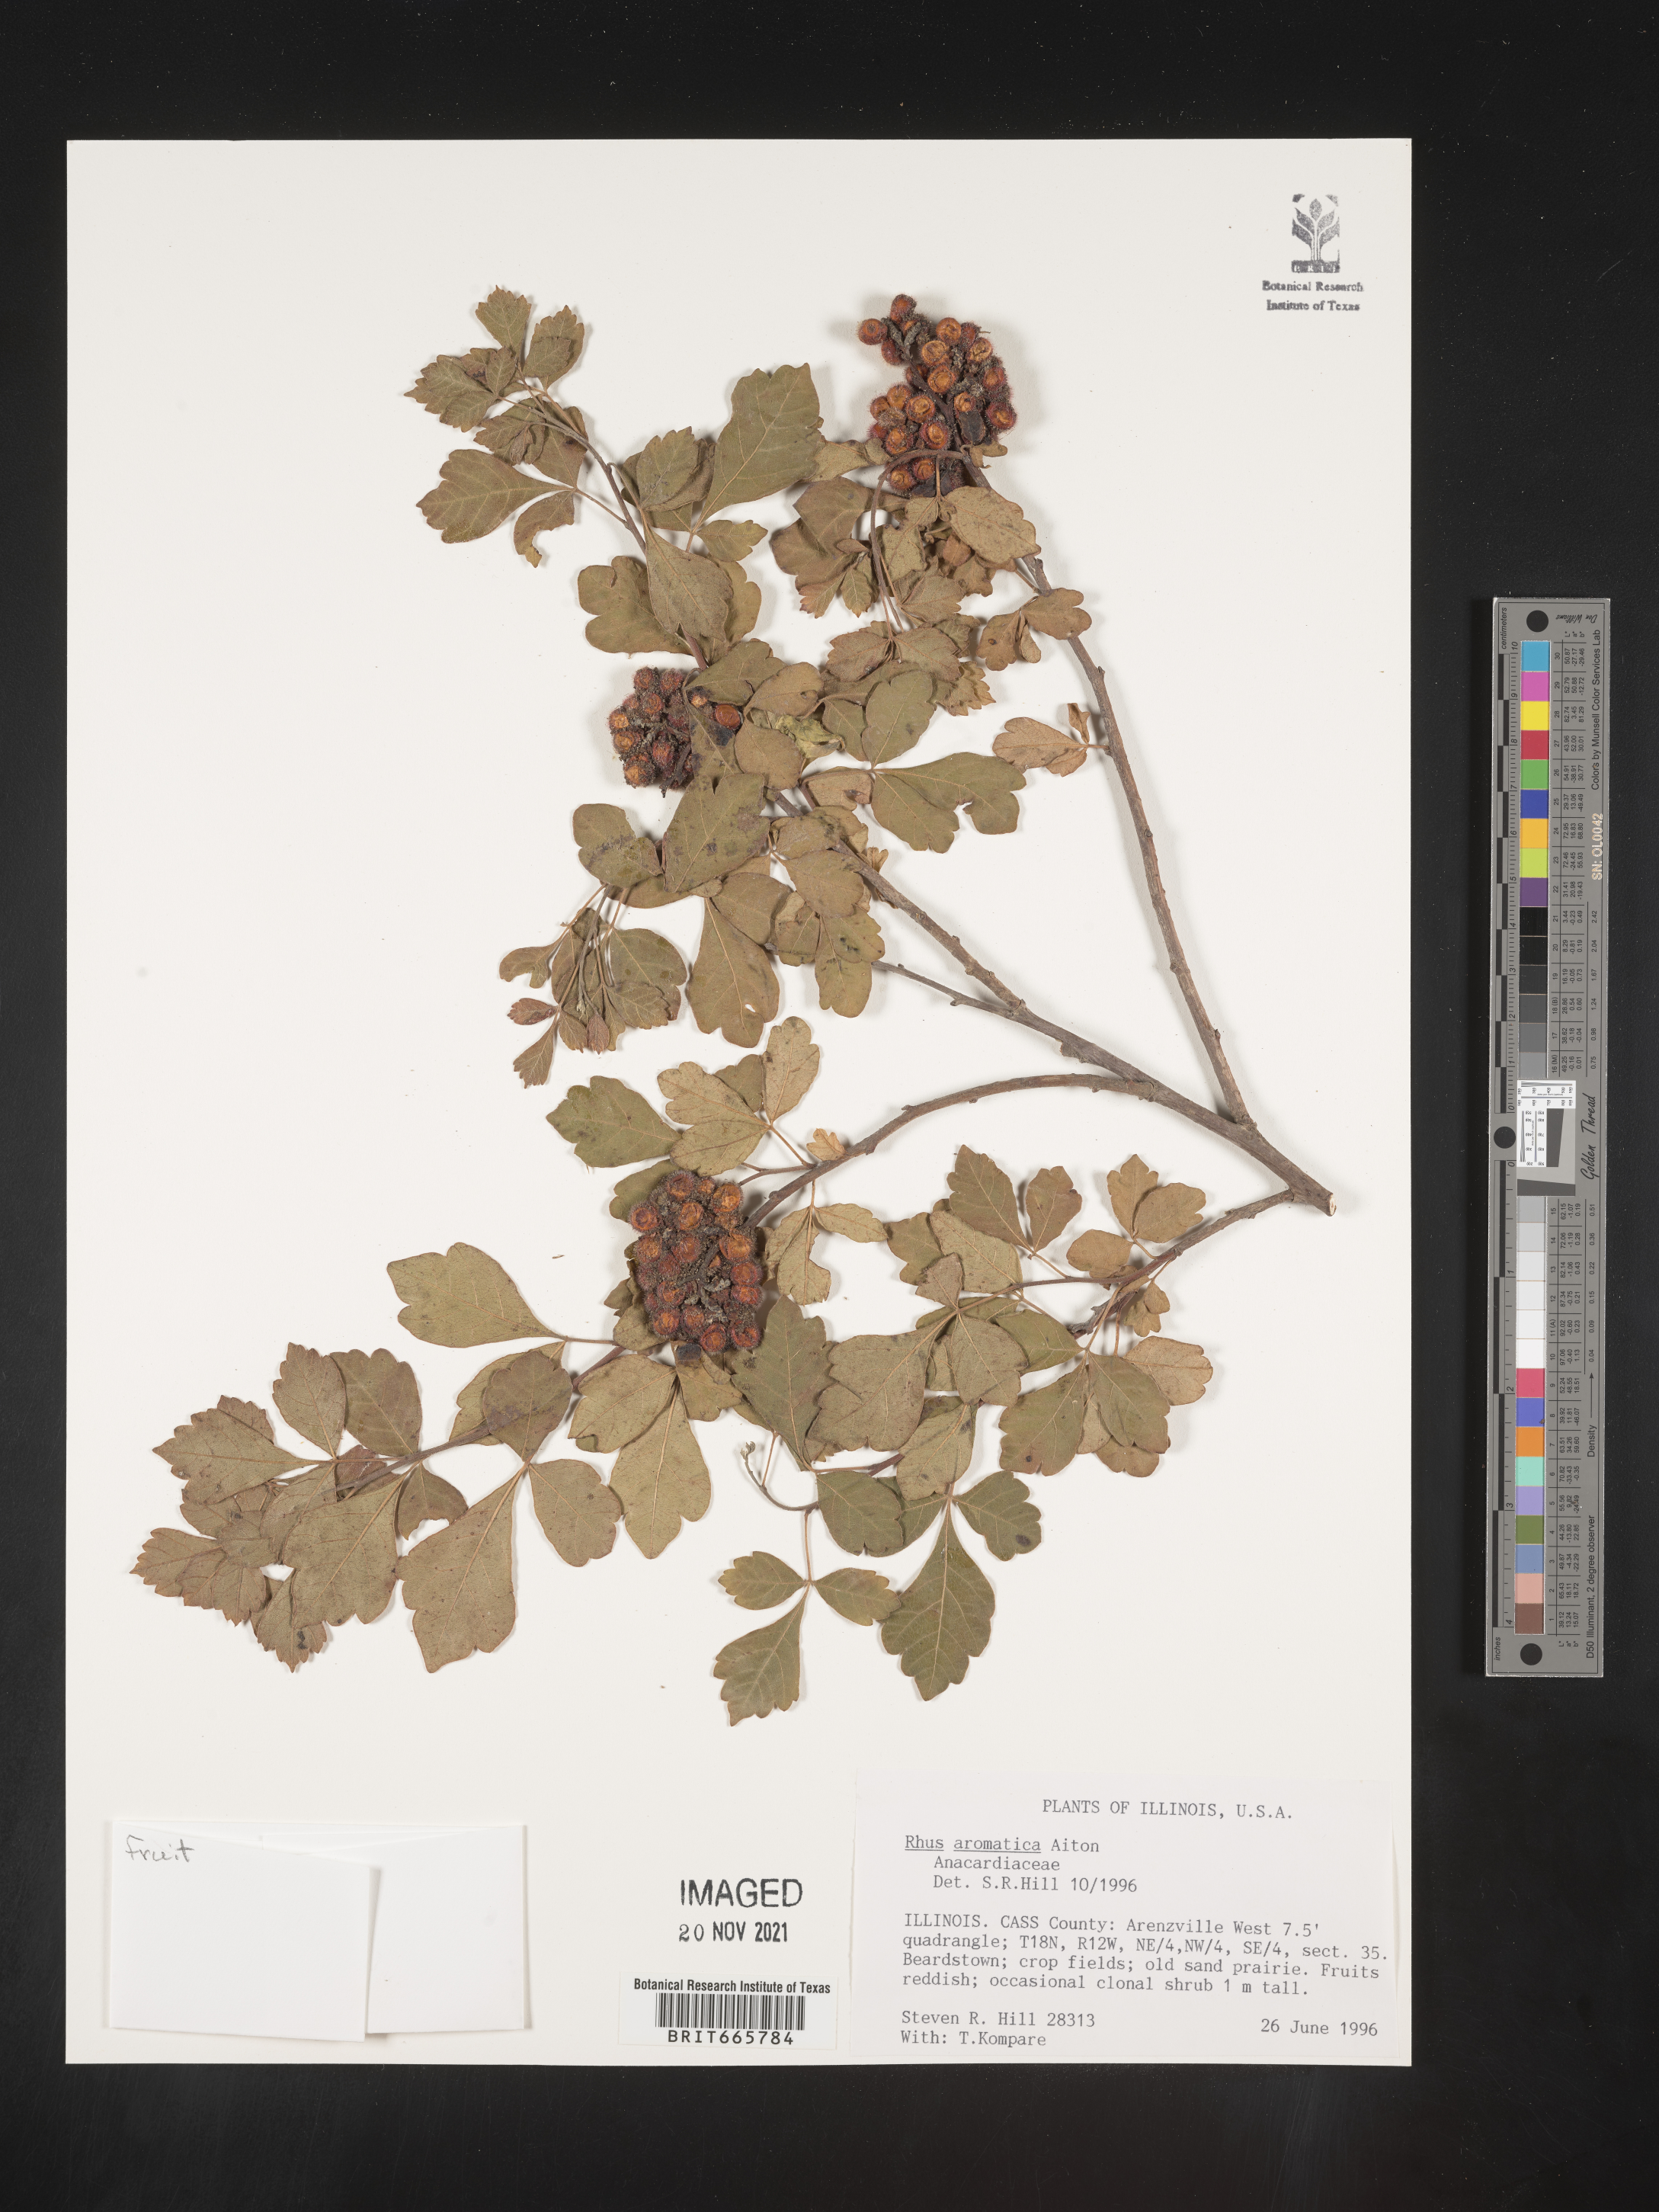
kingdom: Plantae
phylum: Tracheophyta
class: Magnoliopsida
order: Sapindales
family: Anacardiaceae
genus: Rhus
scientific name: Rhus aromatica
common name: Aromatic sumac
